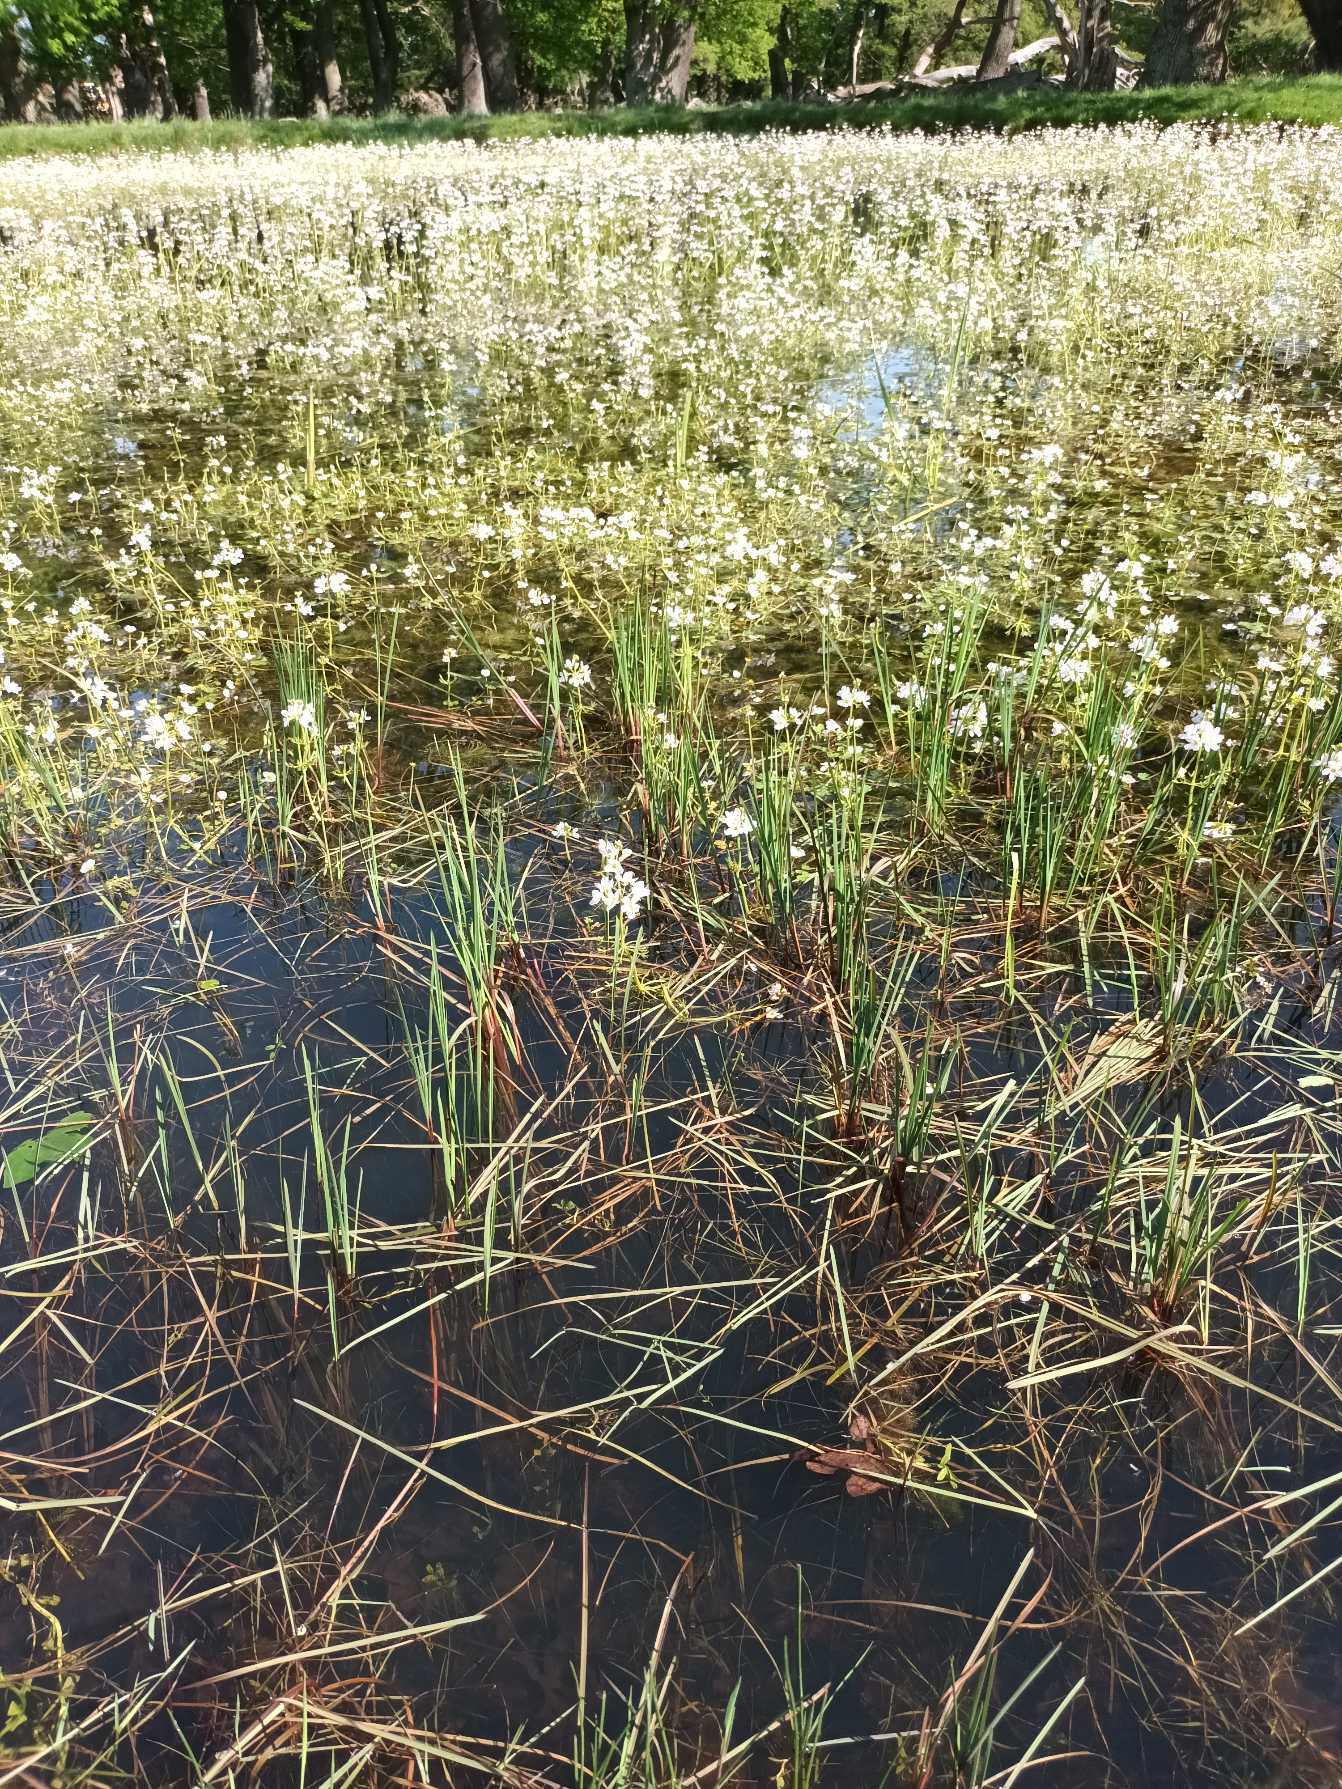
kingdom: Plantae
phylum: Tracheophyta
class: Magnoliopsida
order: Ericales
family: Primulaceae
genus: Hottonia
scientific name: Hottonia palustris
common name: Vandrøllike
